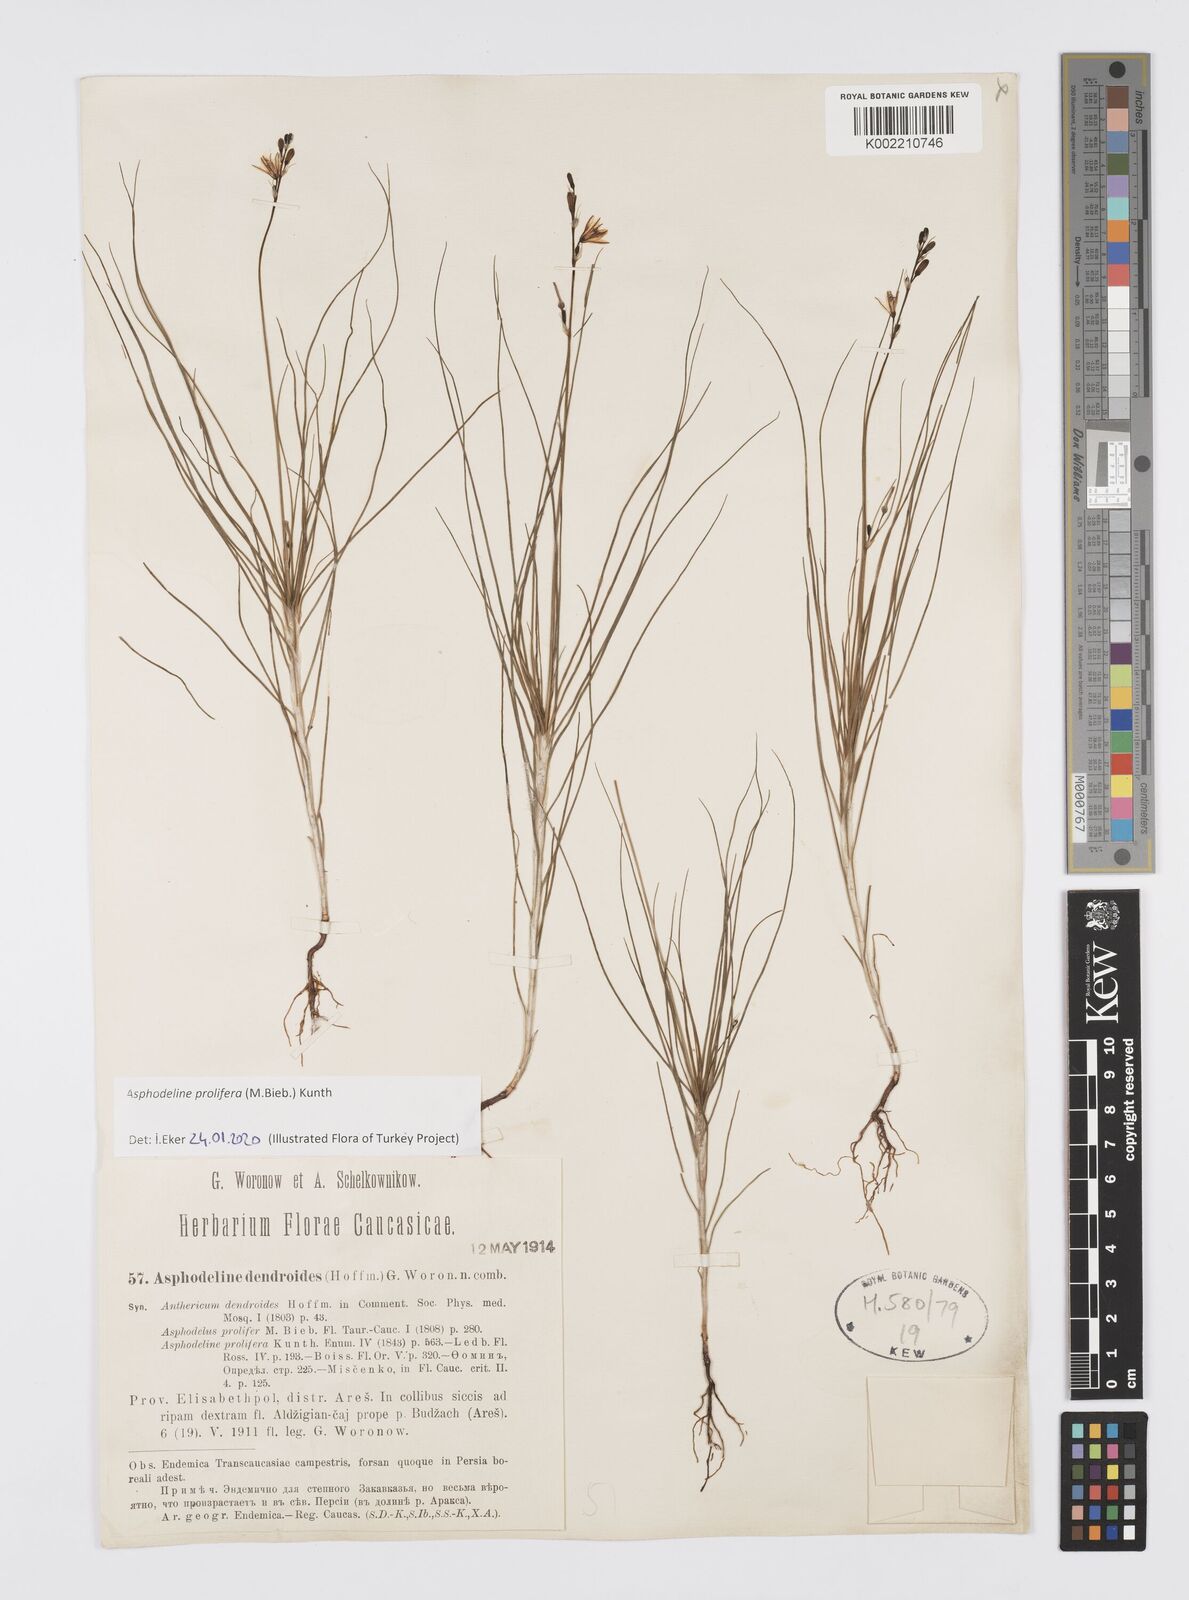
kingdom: Plantae
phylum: Tracheophyta
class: Liliopsida
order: Asparagales
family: Asphodelaceae
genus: Asphodeline
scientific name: Asphodeline prolifera
